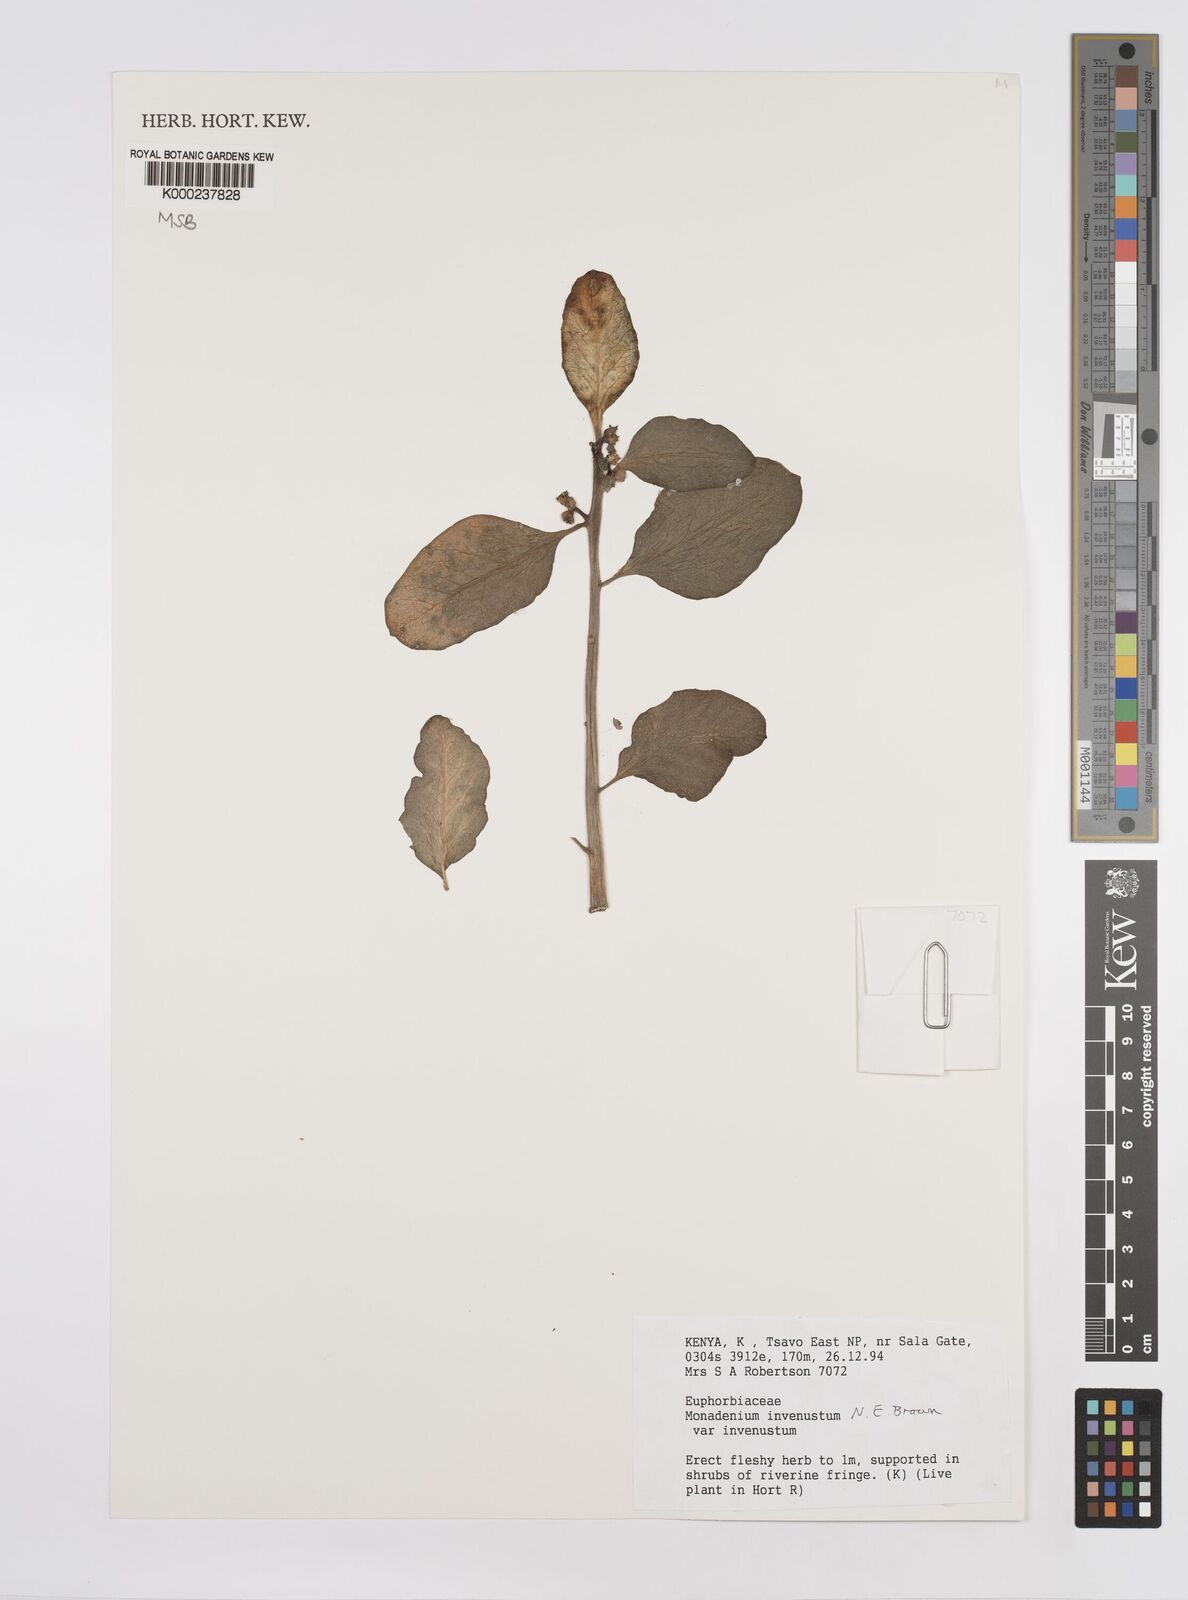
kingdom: Plantae
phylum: Tracheophyta
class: Magnoliopsida
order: Malpighiales
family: Euphorbiaceae
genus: Euphorbia
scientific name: Euphorbia invenusta
